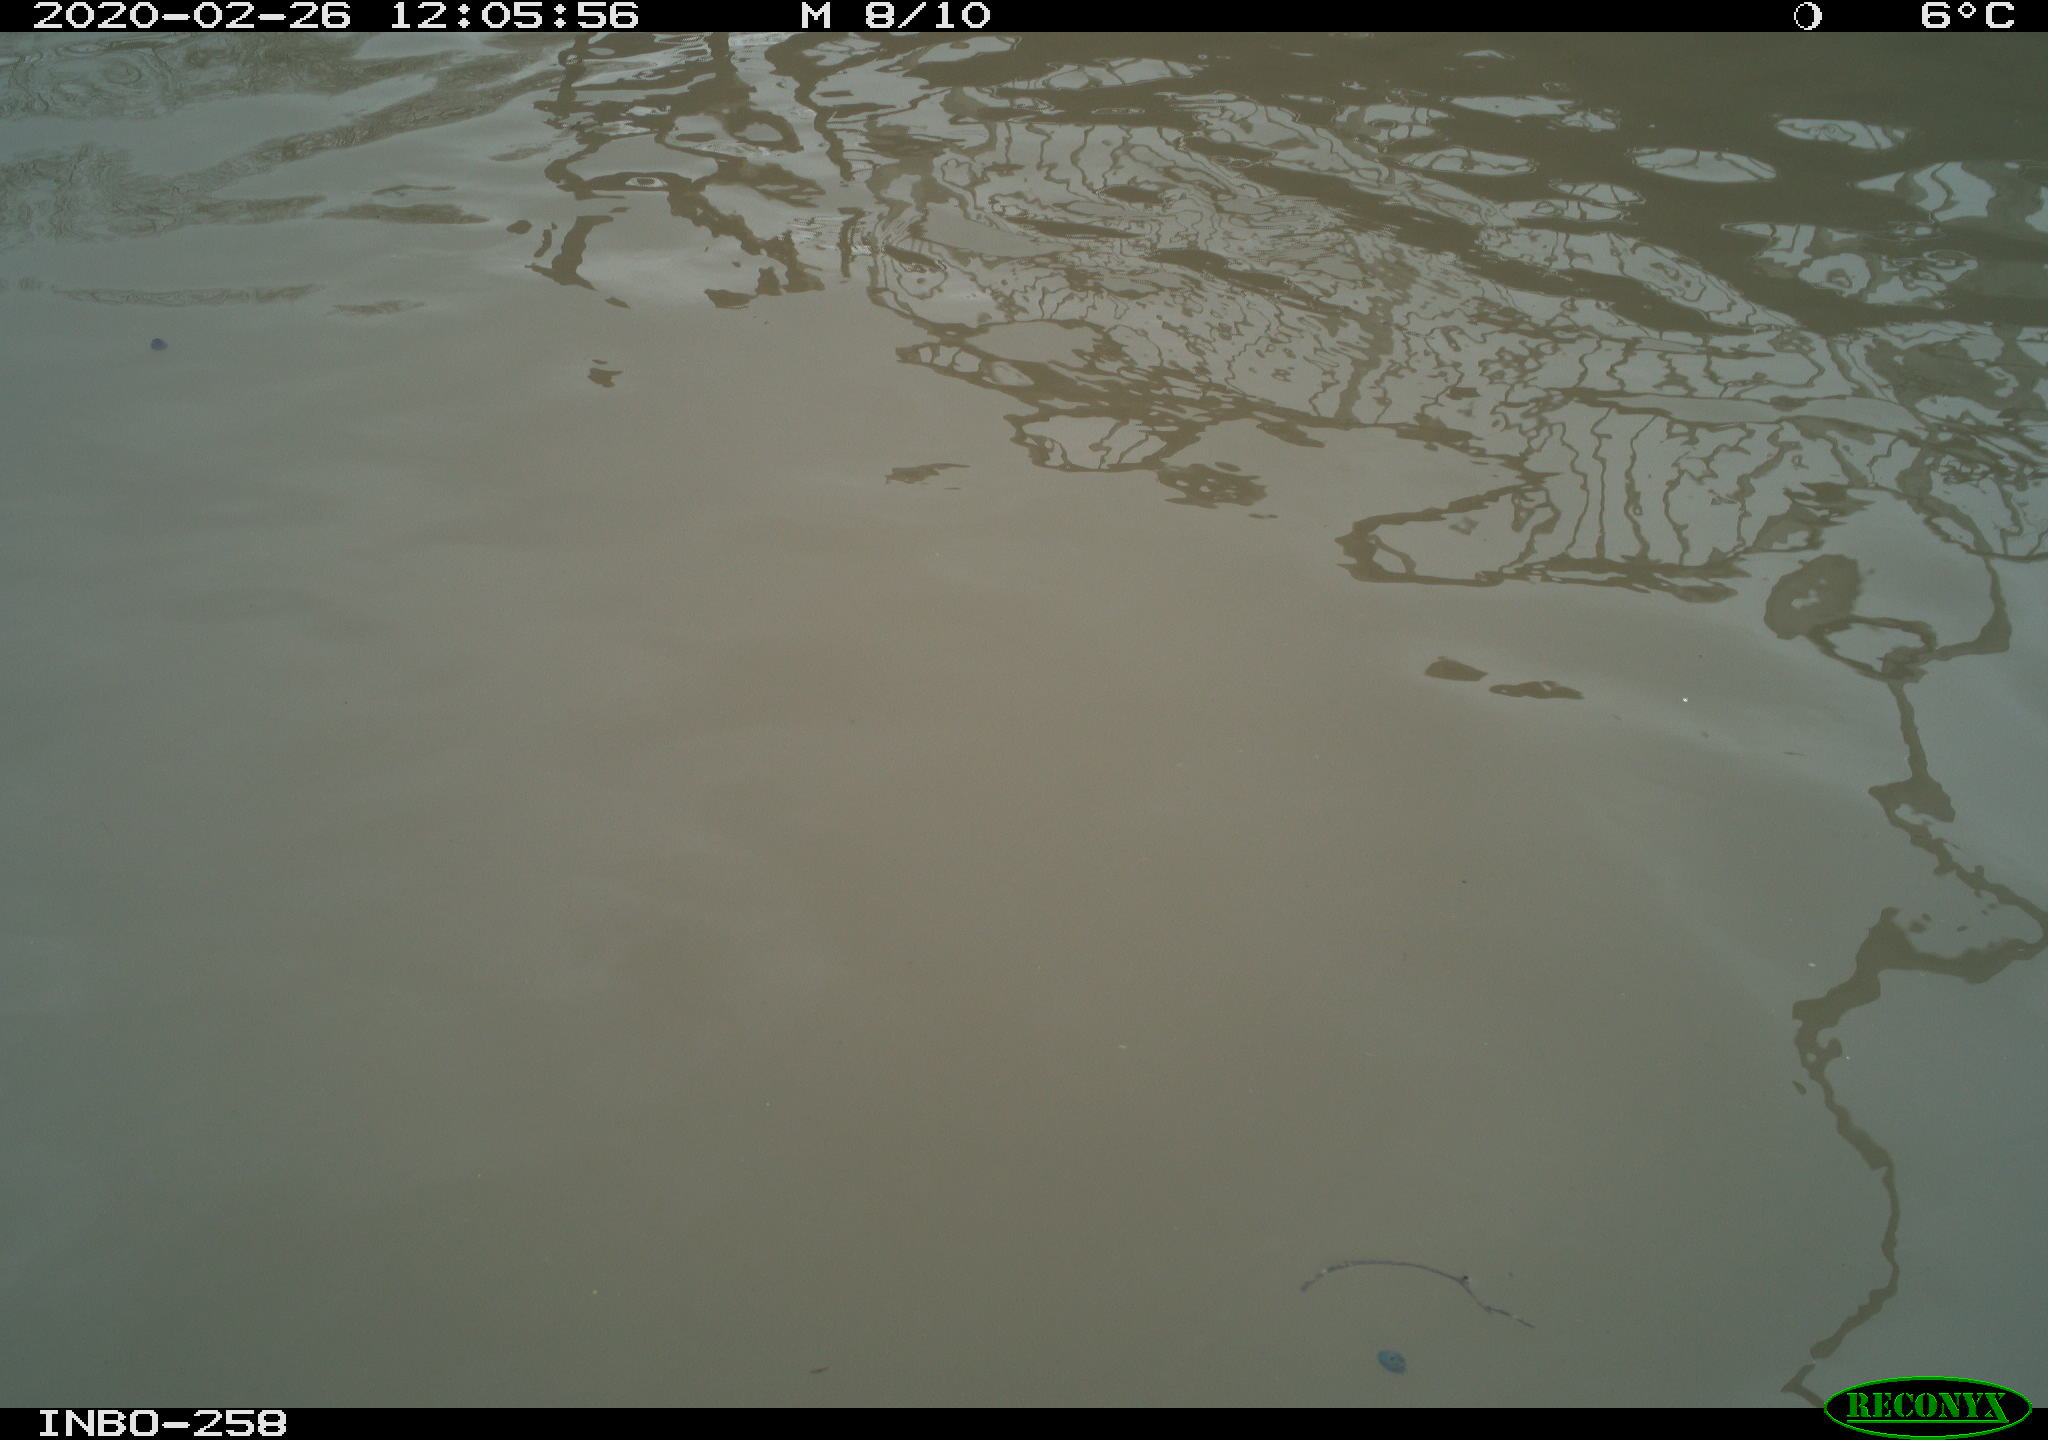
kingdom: Animalia
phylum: Chordata
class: Aves
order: Anseriformes
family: Anatidae
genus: Anas
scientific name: Anas platyrhynchos
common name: Mallard
